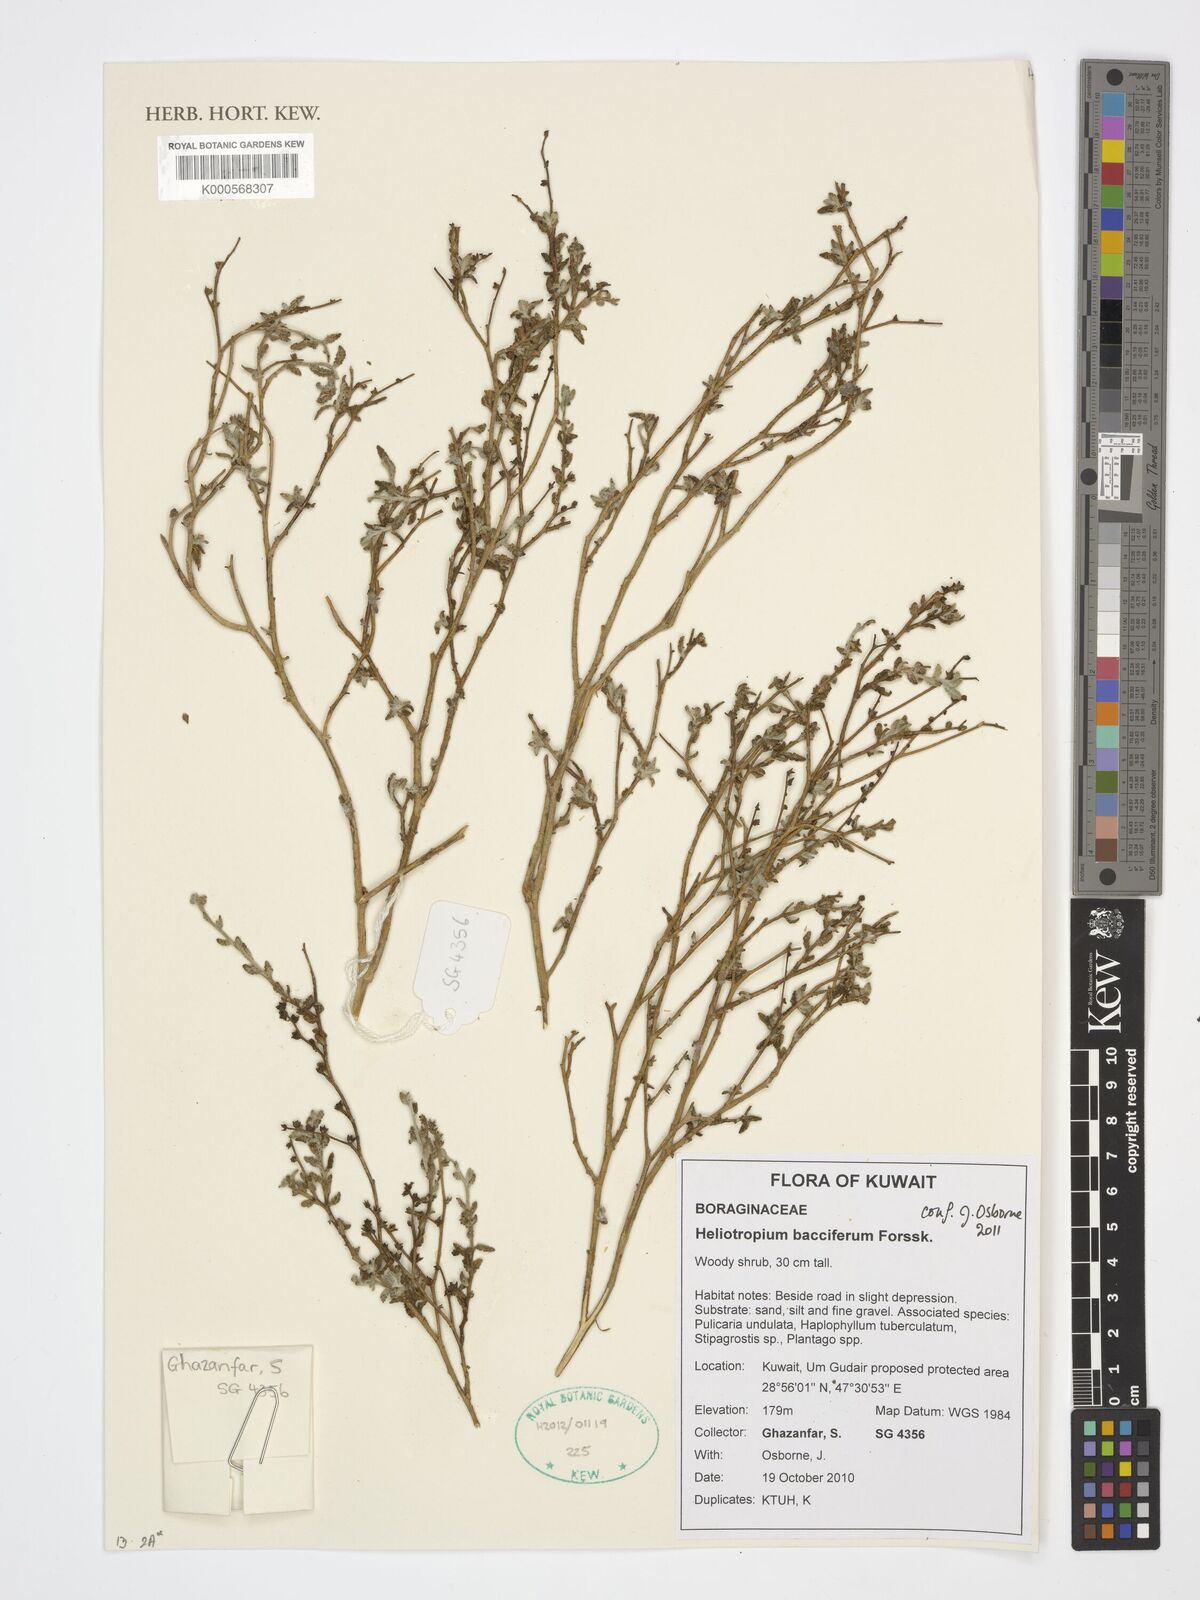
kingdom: Plantae
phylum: Tracheophyta
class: Magnoliopsida
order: Boraginales
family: Heliotropiaceae
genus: Heliotropium
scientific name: Heliotropium bacciferum
